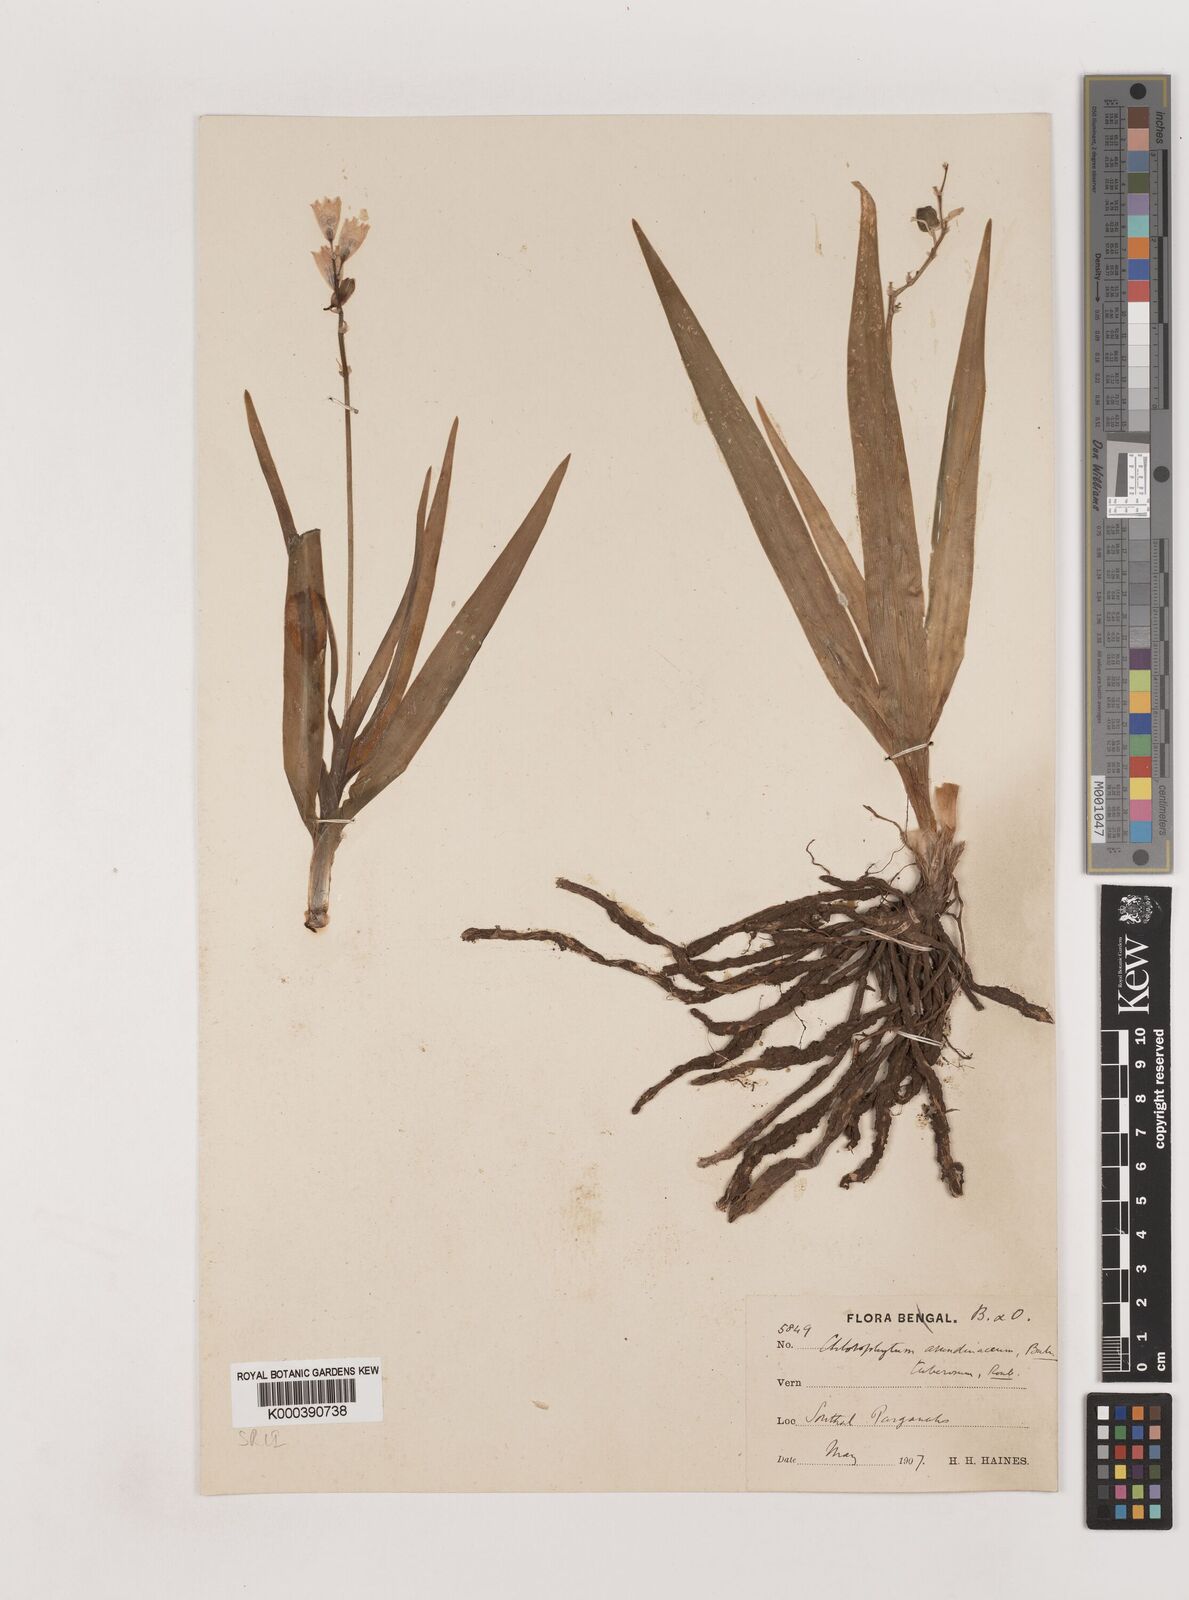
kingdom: Plantae
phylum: Tracheophyta
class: Liliopsida
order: Asparagales
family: Asparagaceae
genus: Chlorophytum
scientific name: Chlorophytum tuberosum
